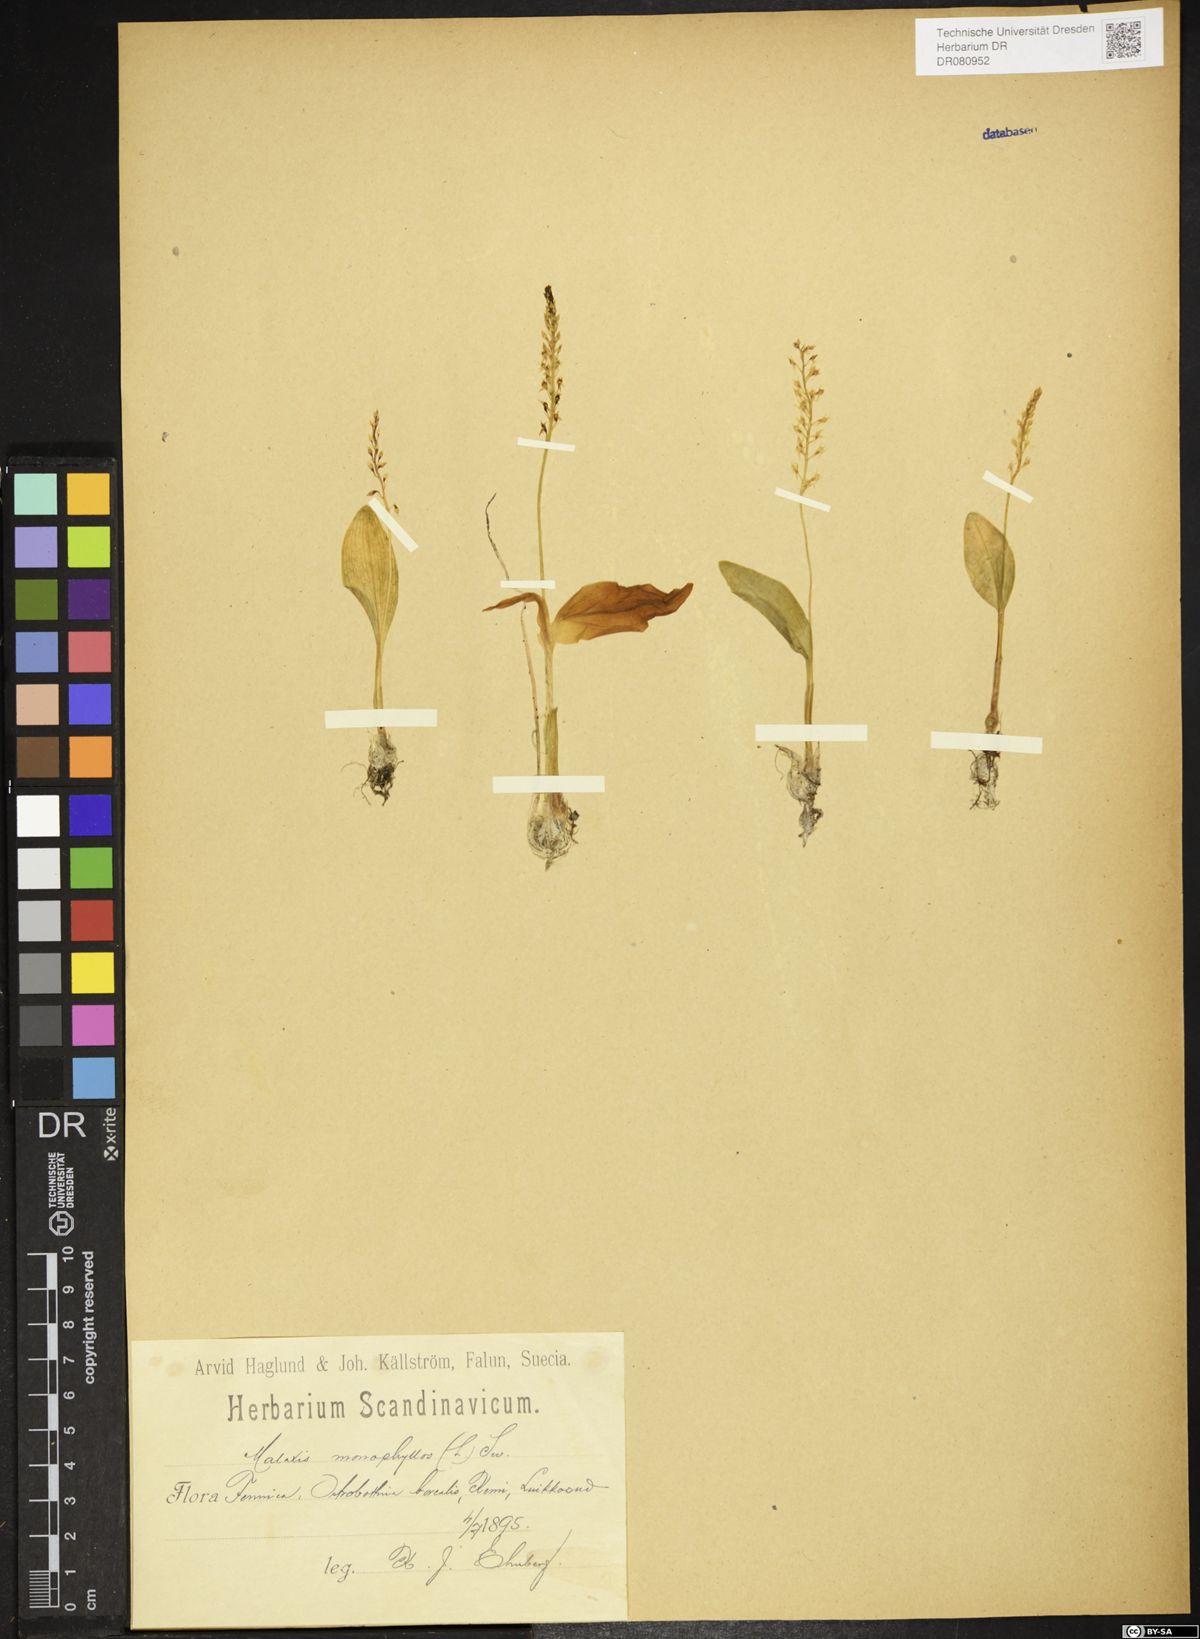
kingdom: Plantae
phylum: Tracheophyta
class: Liliopsida
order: Asparagales
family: Orchidaceae
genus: Malaxis
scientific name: Malaxis monophyllos
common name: White adder's-mouth
